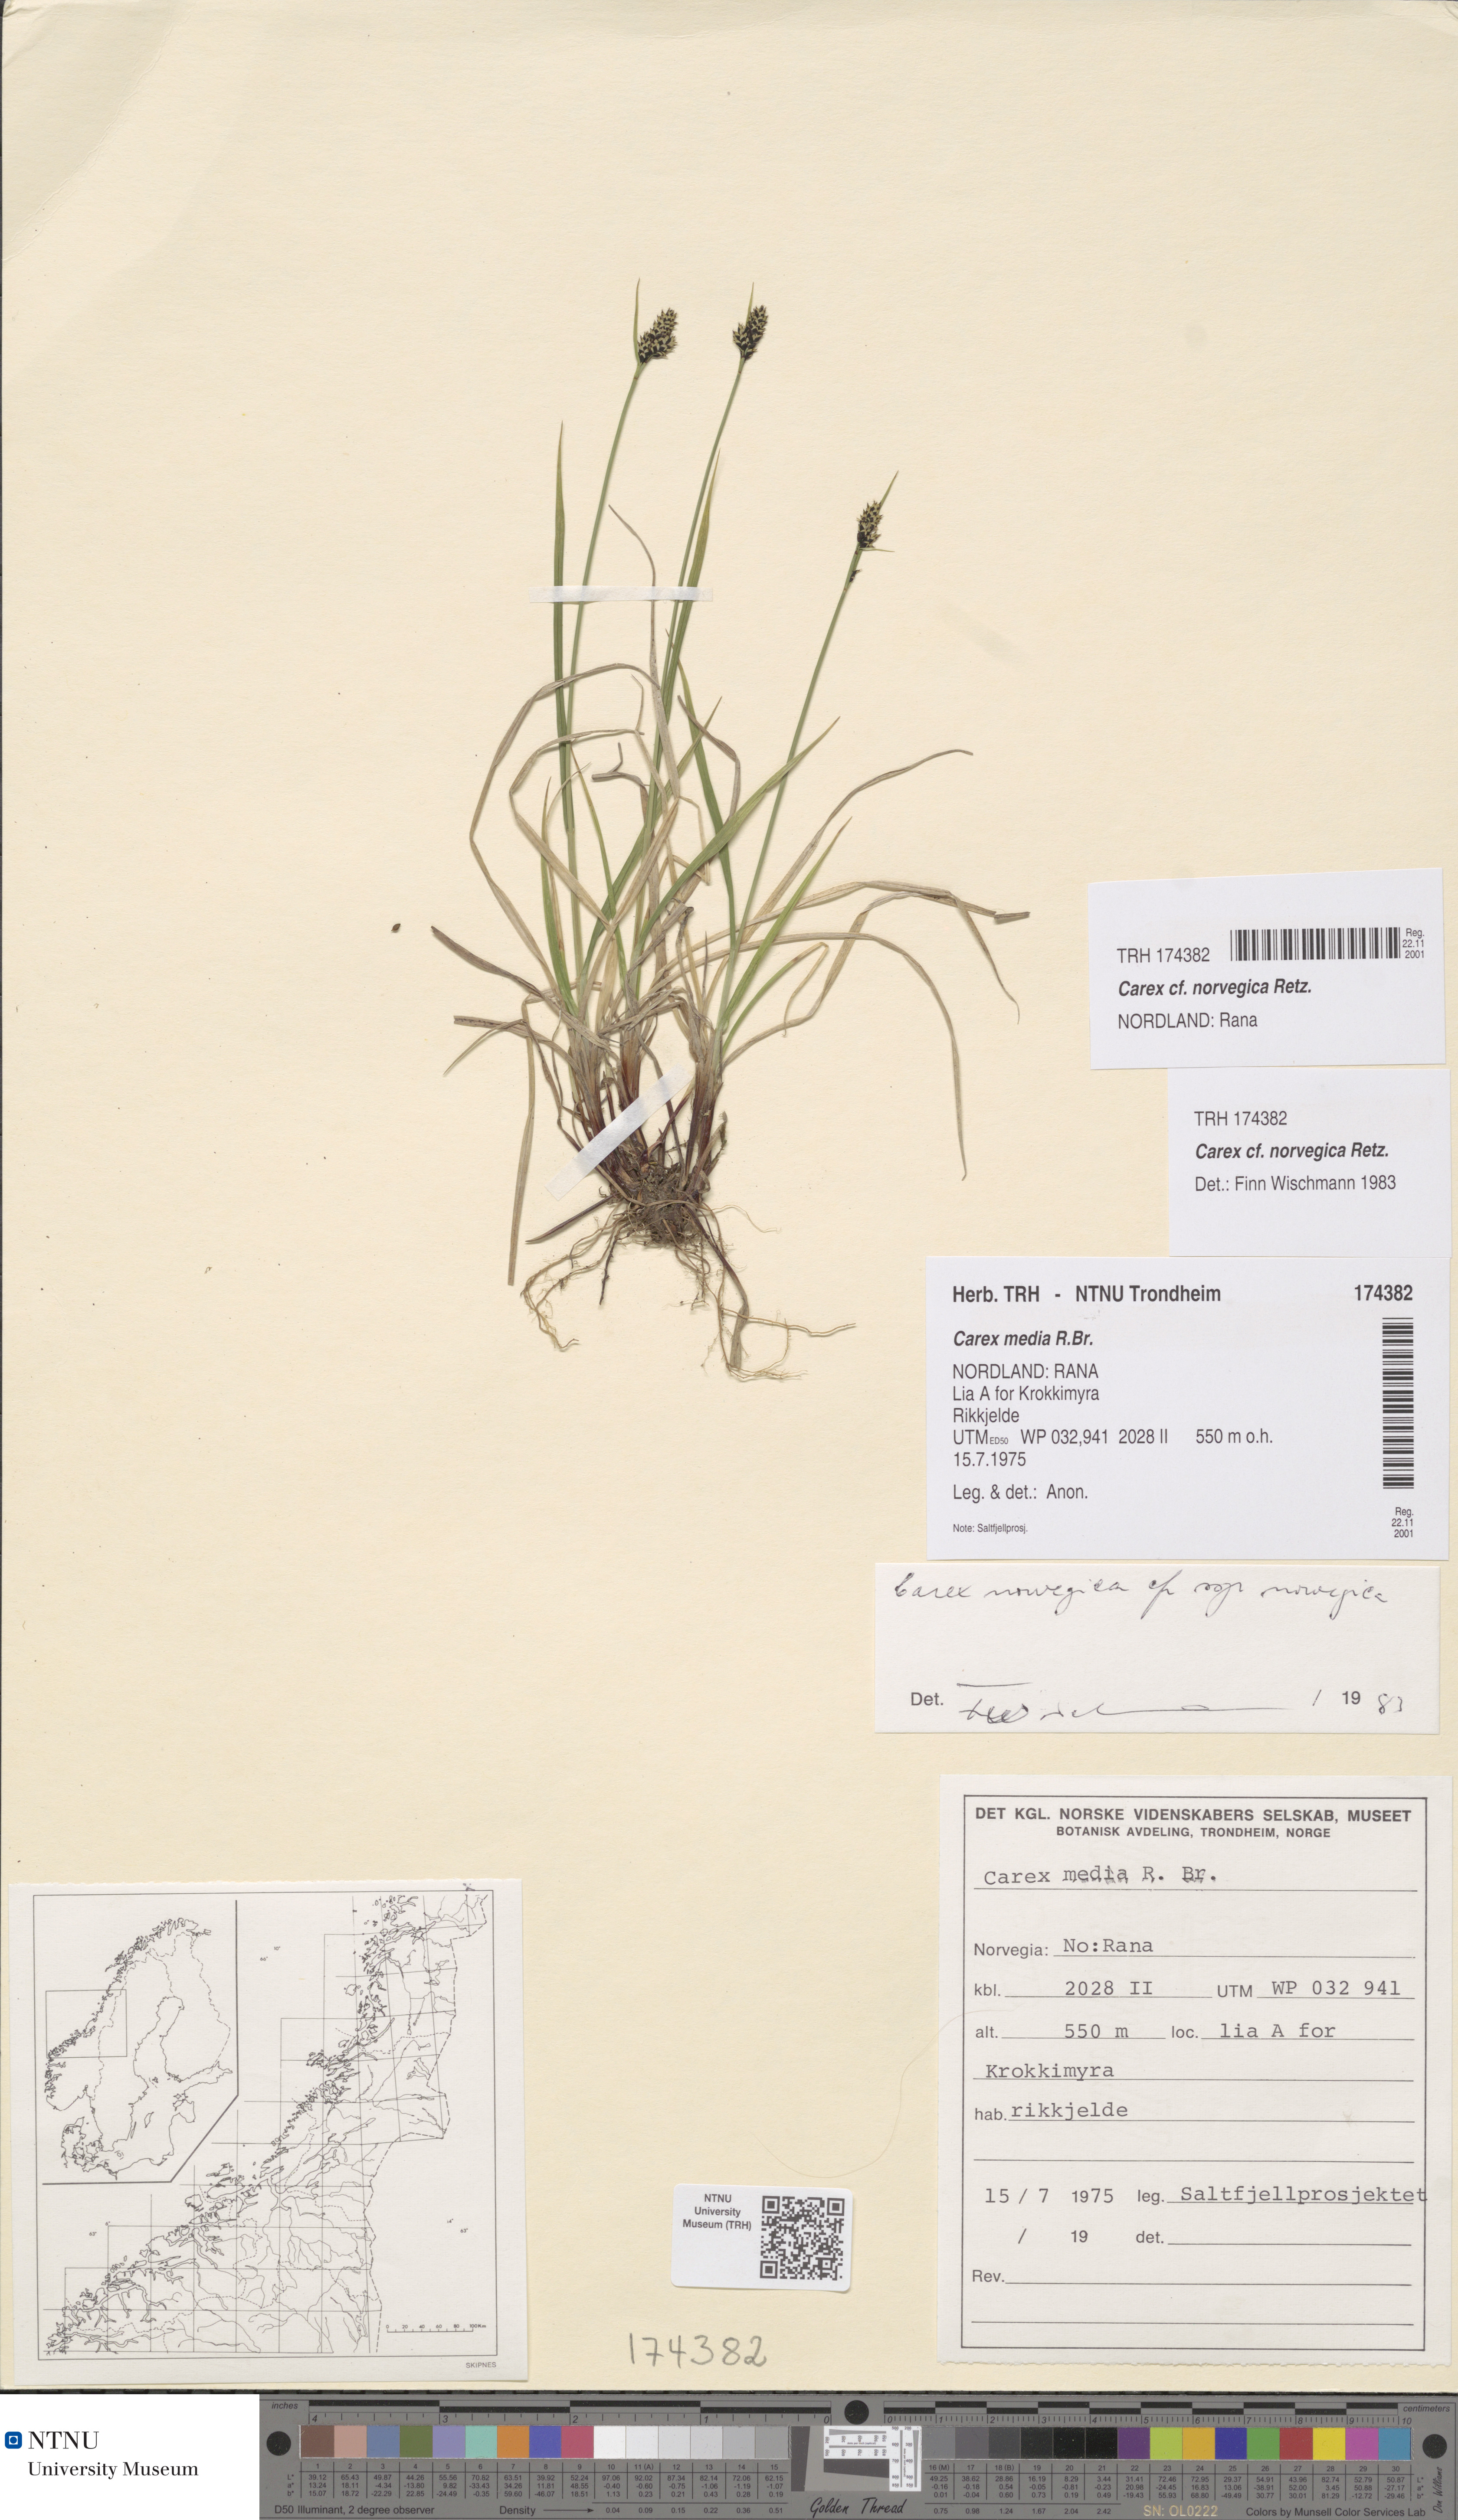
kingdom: Plantae
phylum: Tracheophyta
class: Liliopsida
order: Poales
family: Cyperaceae
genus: Carex
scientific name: Carex norvegica
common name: Close-headed alpine-sedge
